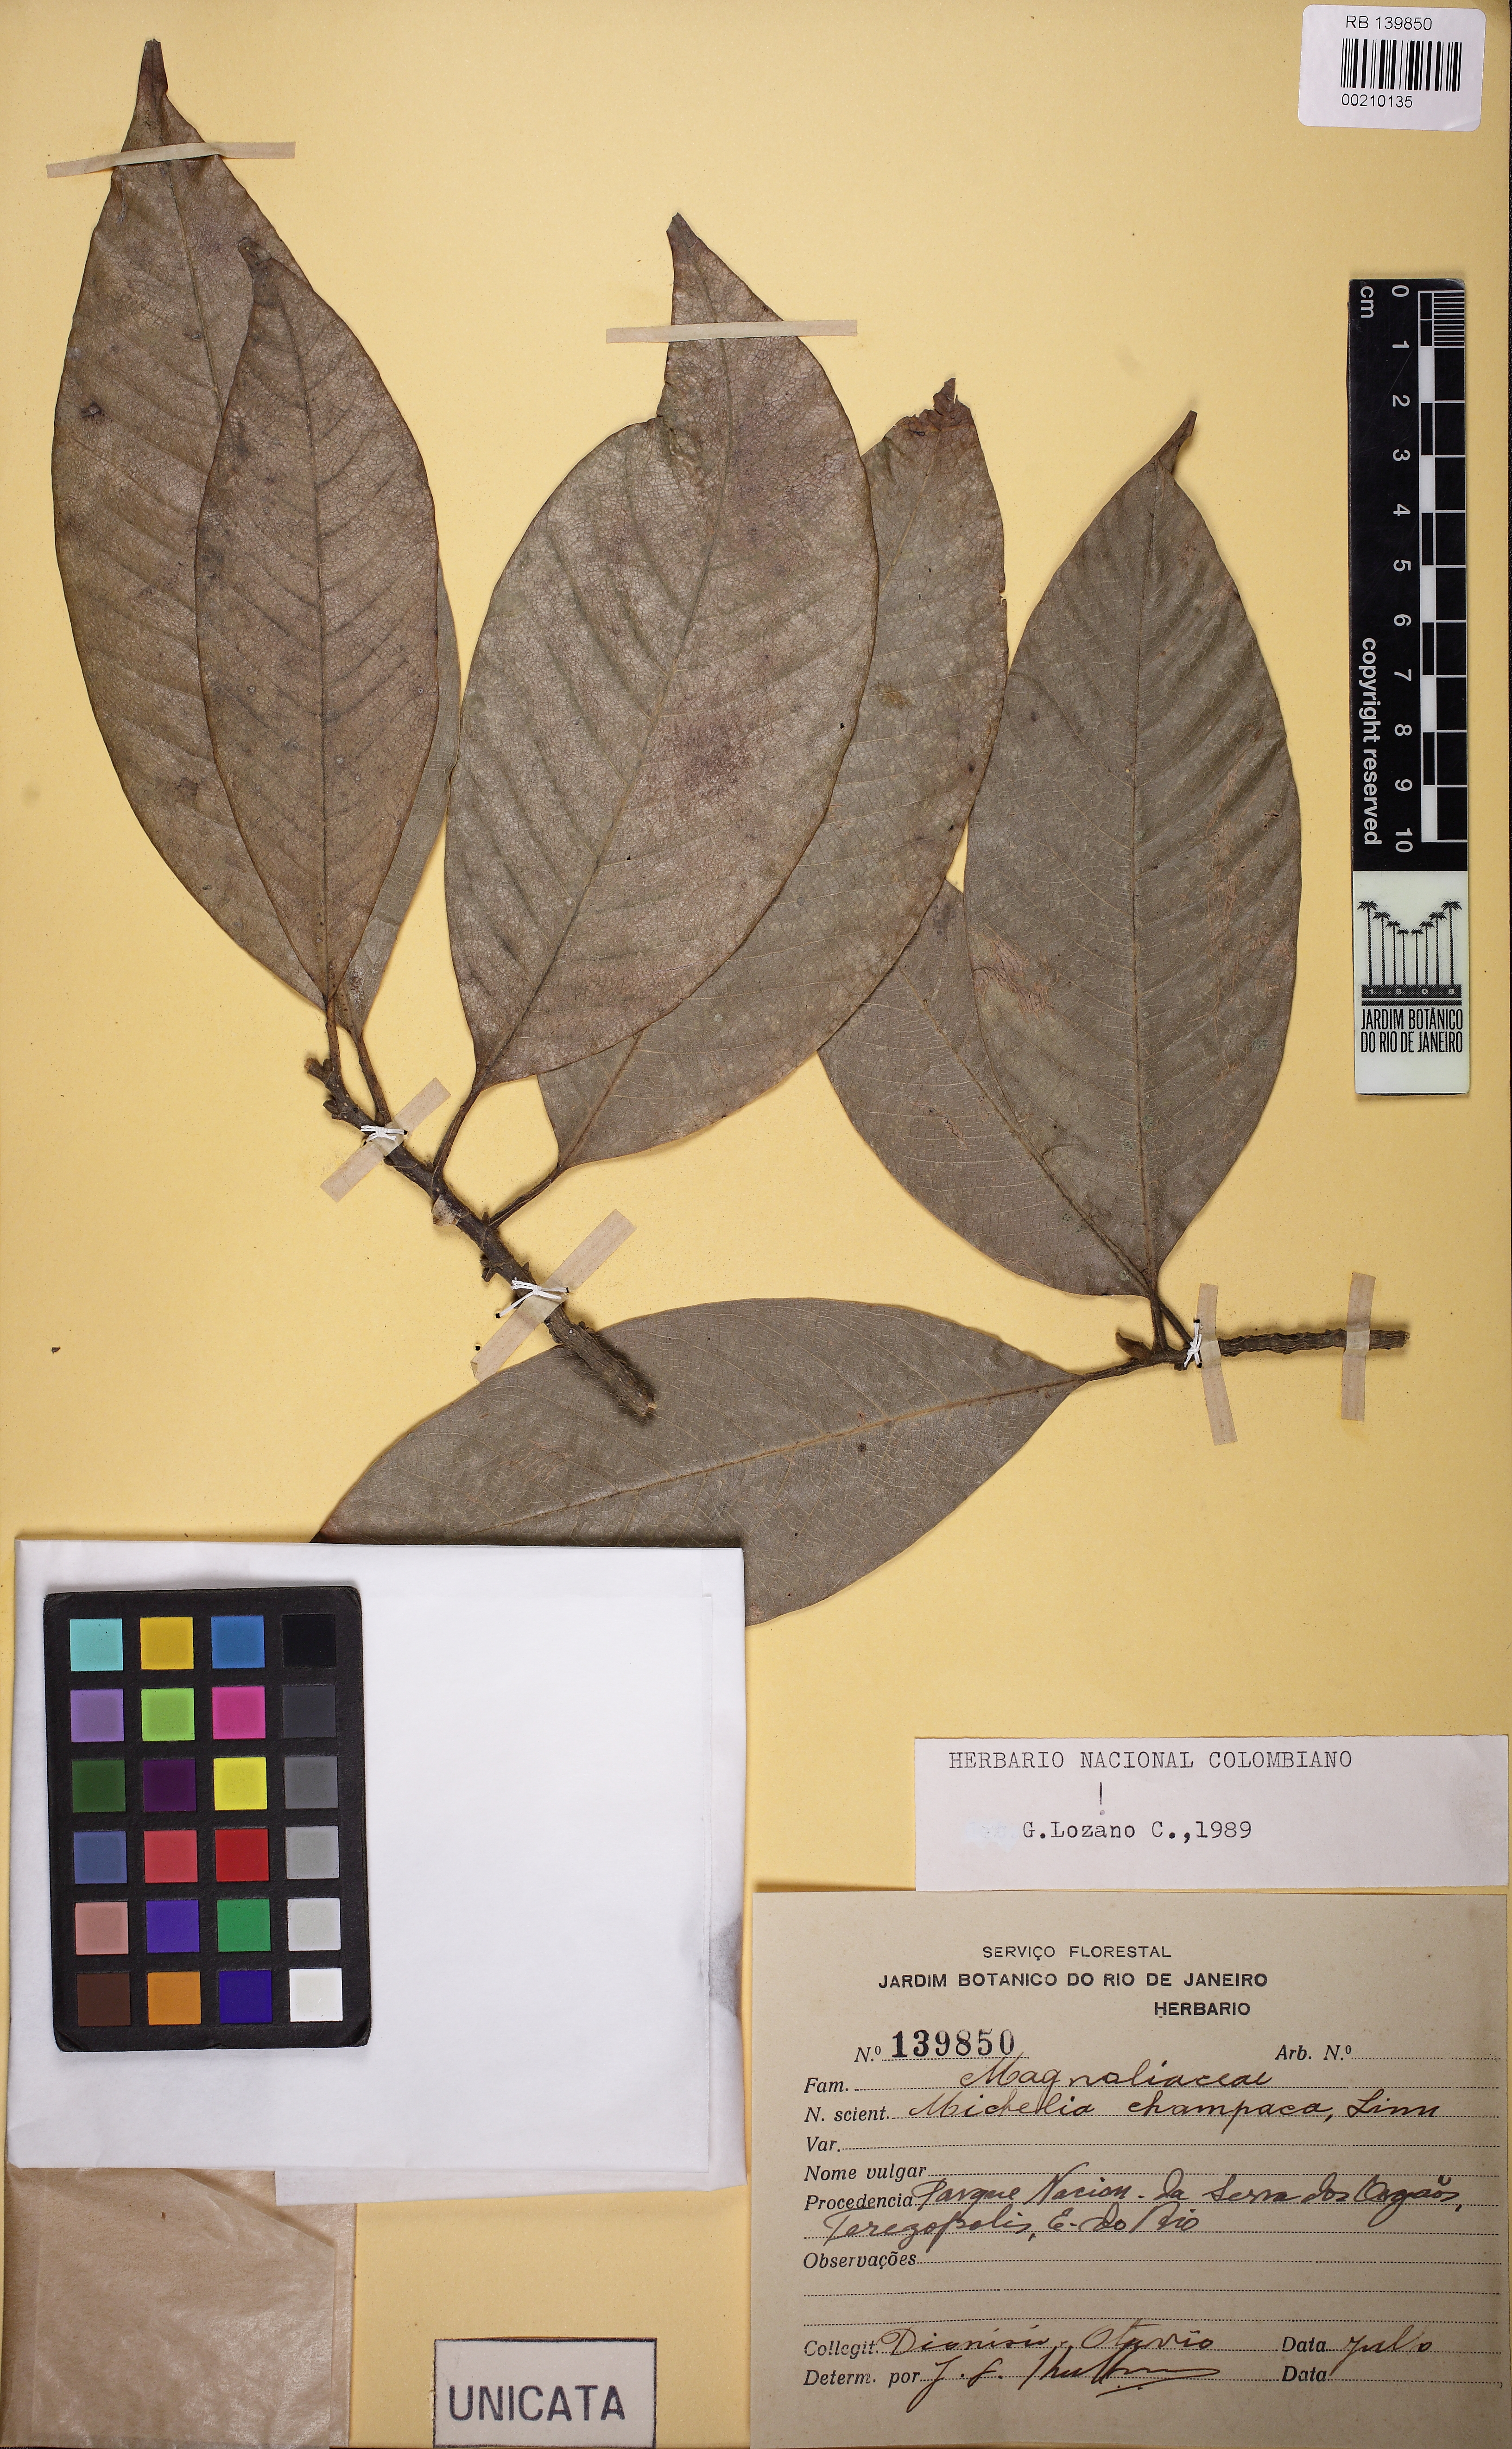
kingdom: Plantae
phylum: Tracheophyta
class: Magnoliopsida
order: Magnoliales
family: Magnoliaceae
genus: Magnolia
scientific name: Magnolia champaca
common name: Champak
